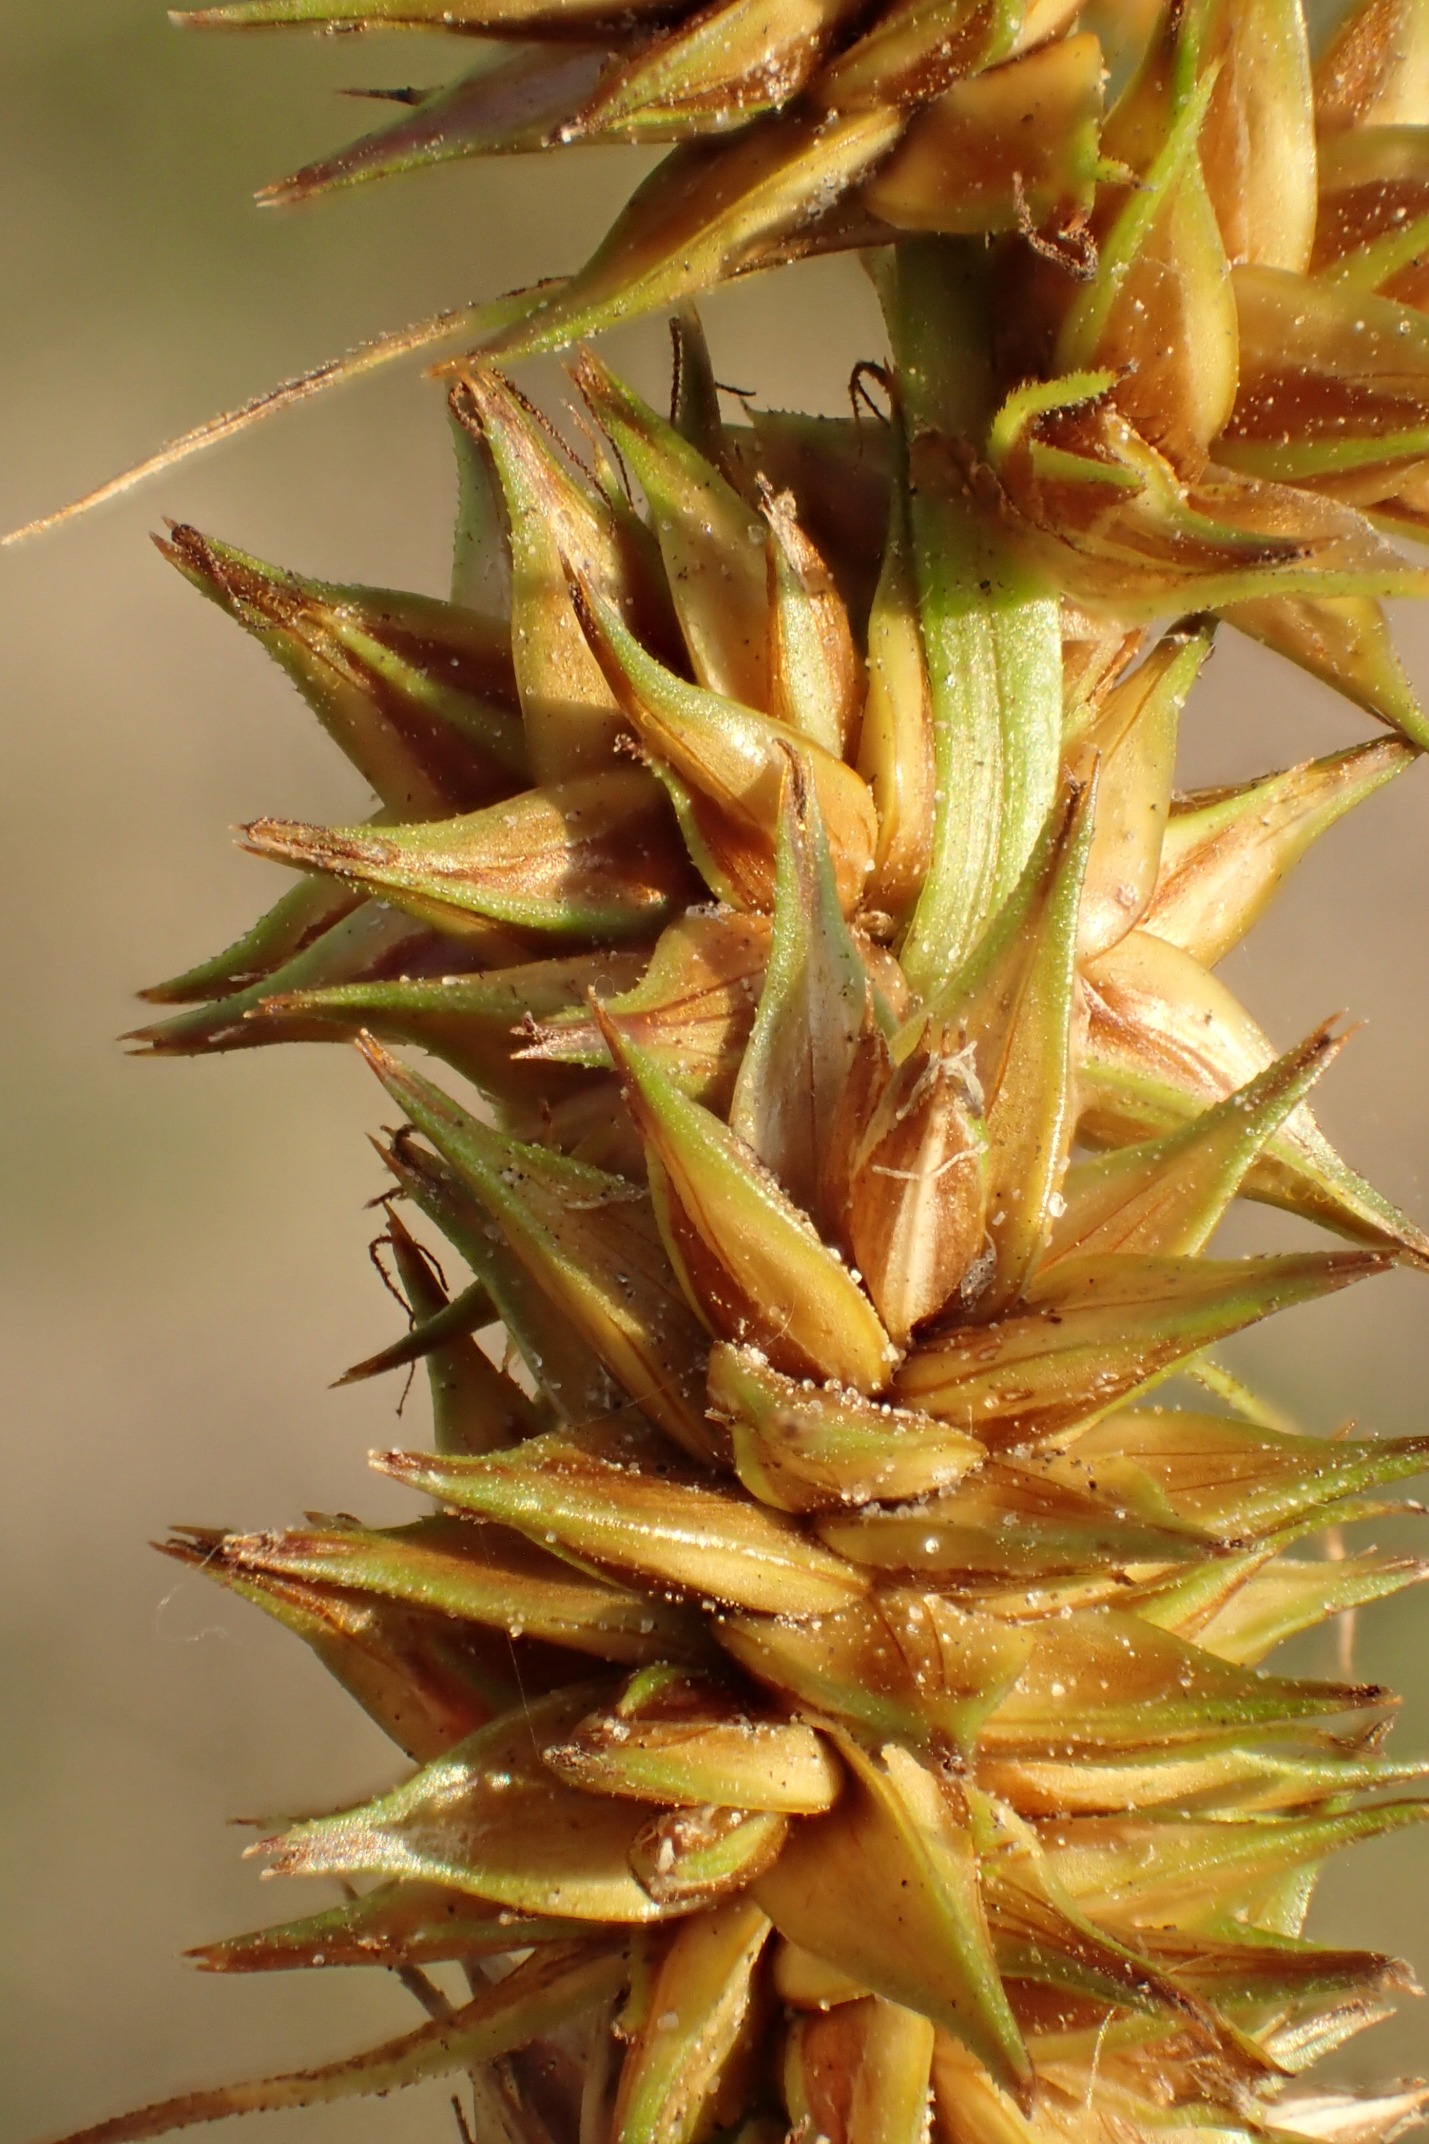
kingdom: Plantae
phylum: Tracheophyta
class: Liliopsida
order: Poales
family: Cyperaceae
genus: Carex
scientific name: Carex otrubae
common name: Sylt-star
